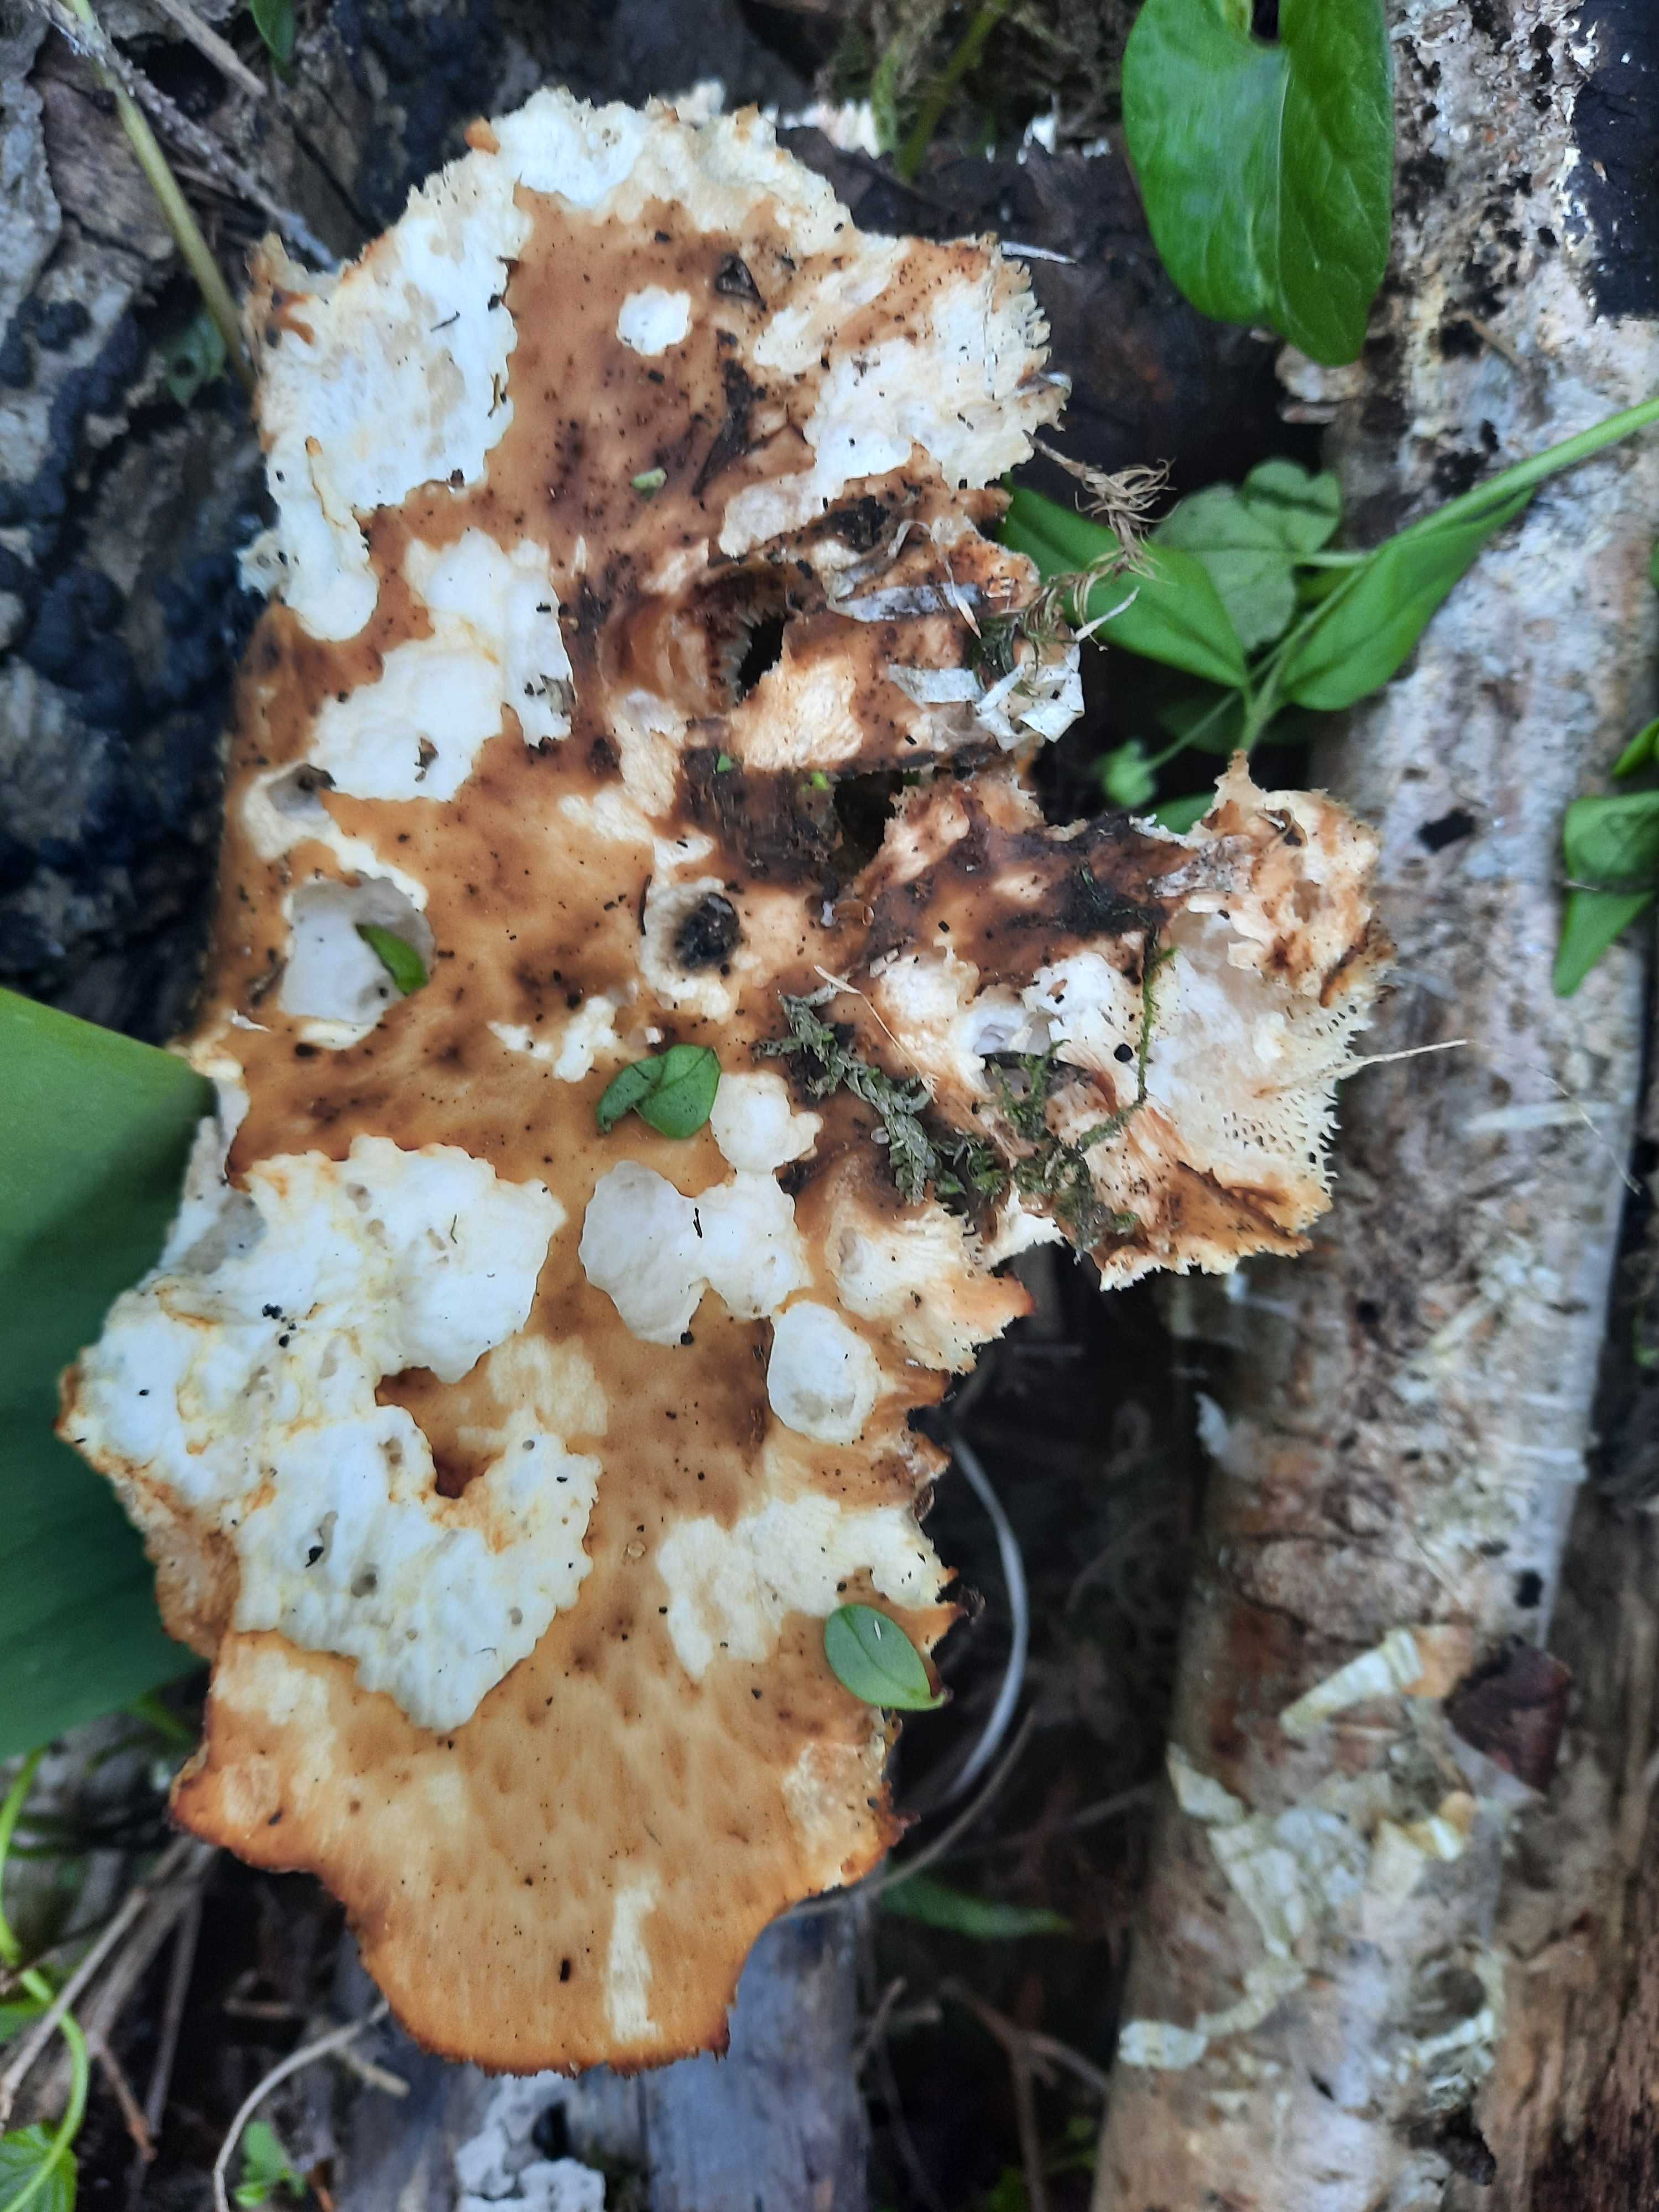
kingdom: Fungi
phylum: Basidiomycota
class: Agaricomycetes
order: Polyporales
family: Polyporaceae
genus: Polyporus
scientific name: Polyporus tuberaster
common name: knoldet stilkporesvamp
